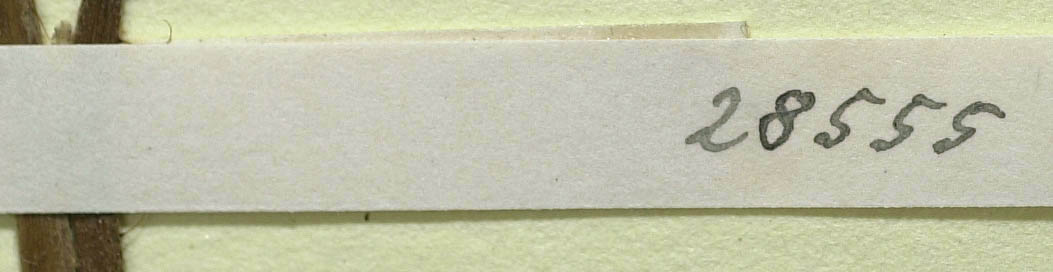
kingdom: Plantae
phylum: Tracheophyta
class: Magnoliopsida
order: Asterales
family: Asteraceae
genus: Pilosella
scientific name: Pilosella officinarum
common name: Mouse-ear hawkweed
